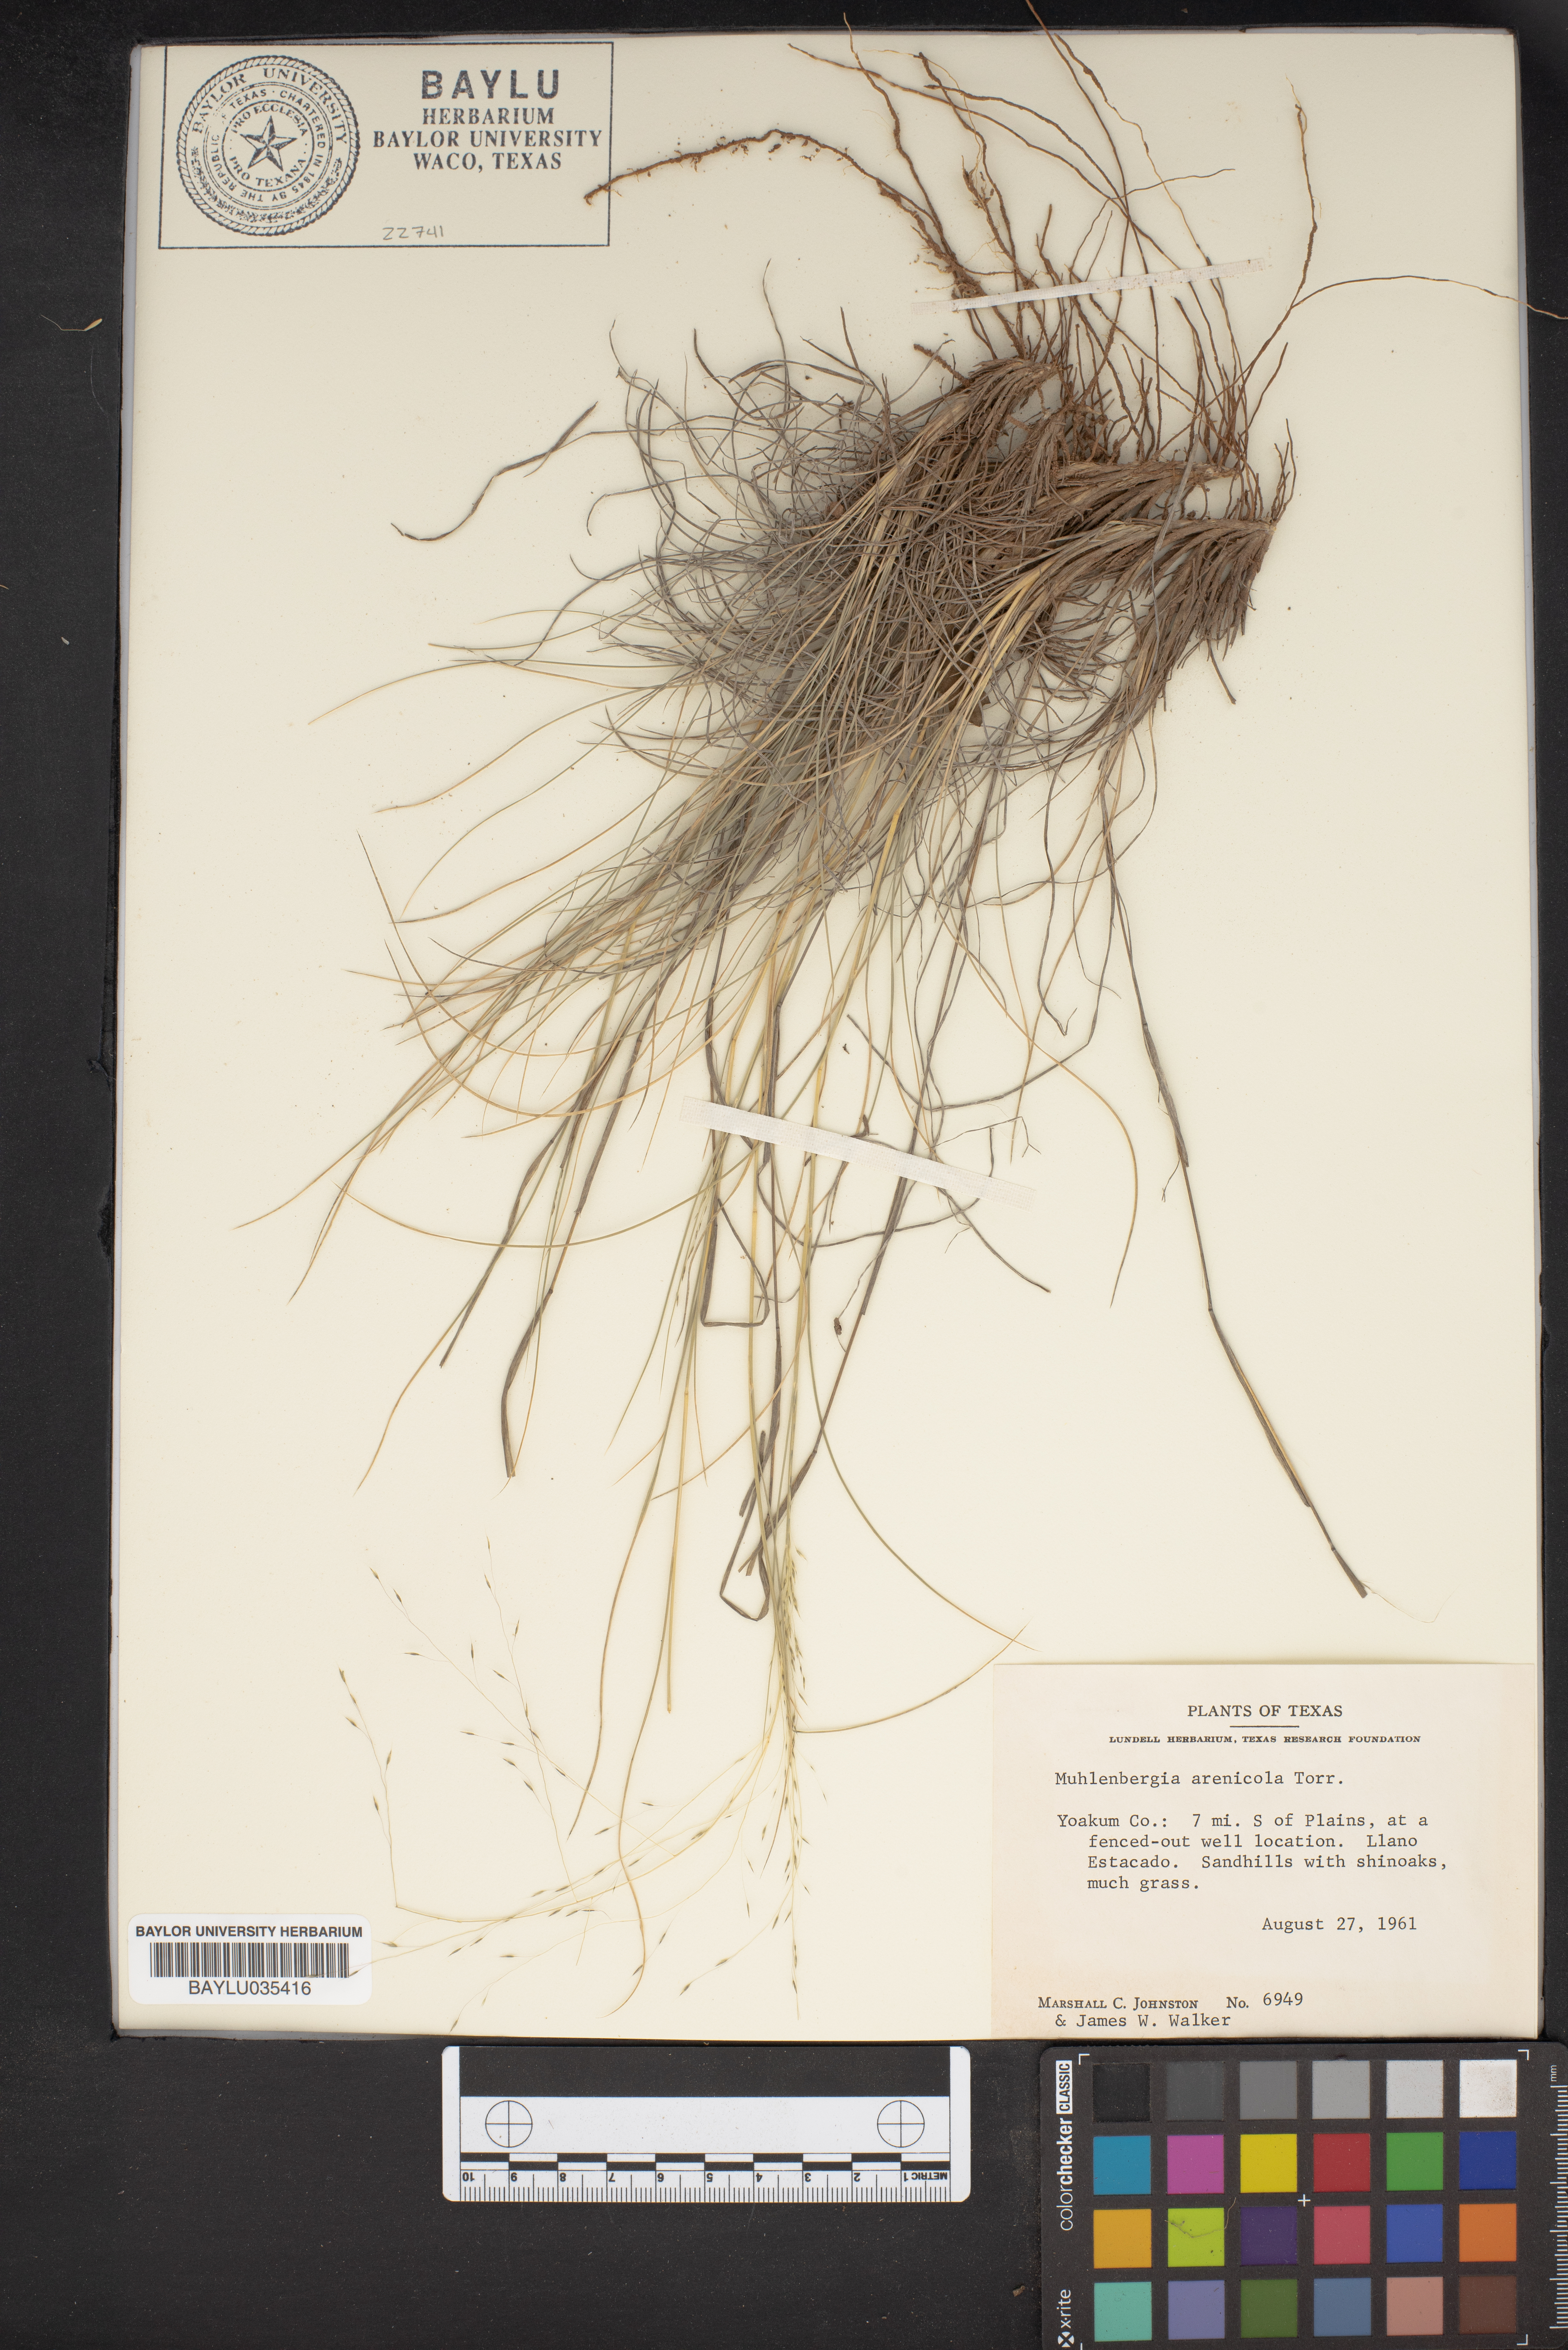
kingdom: Plantae
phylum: Tracheophyta
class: Liliopsida
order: Poales
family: Poaceae
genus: Muhlenbergia
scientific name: Muhlenbergia arenicola
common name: Sand muhly
